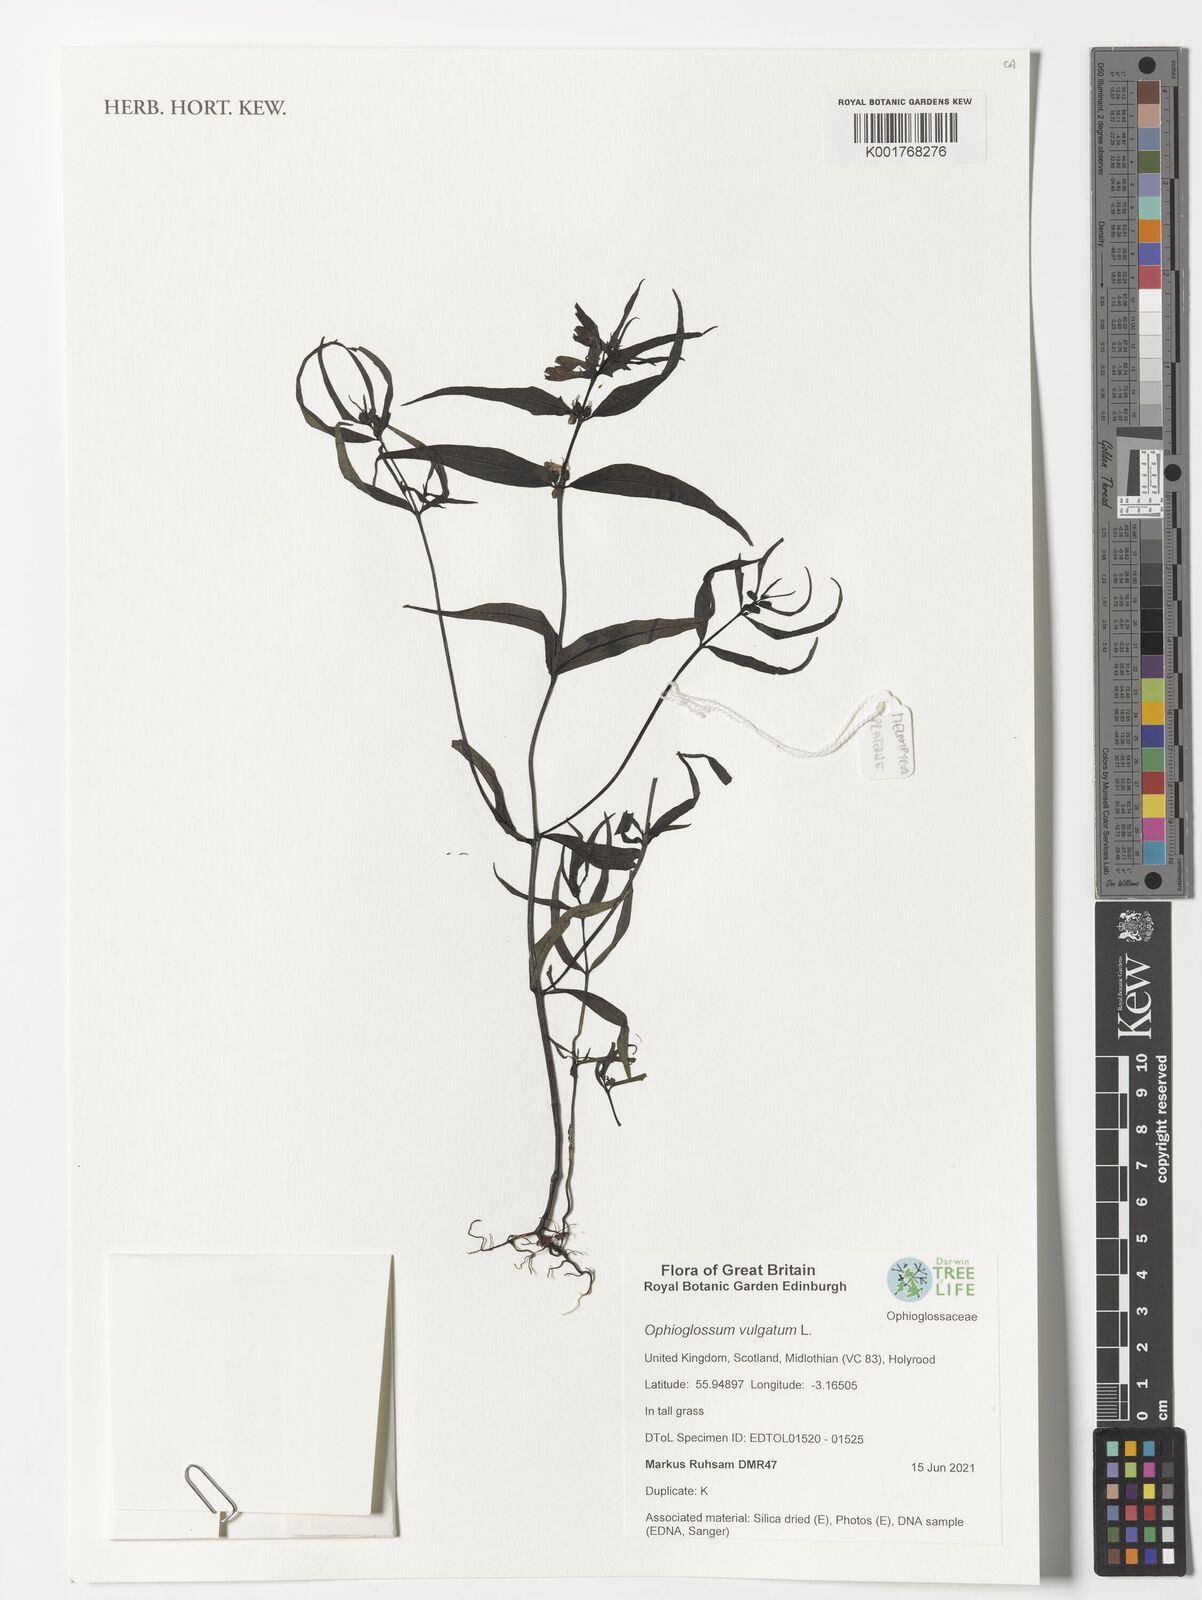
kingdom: Plantae
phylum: Tracheophyta
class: Polypodiopsida
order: Ophioglossales
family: Ophioglossaceae
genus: Ophioglossum
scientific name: Ophioglossum vulgatum
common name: Adder's-tongue
